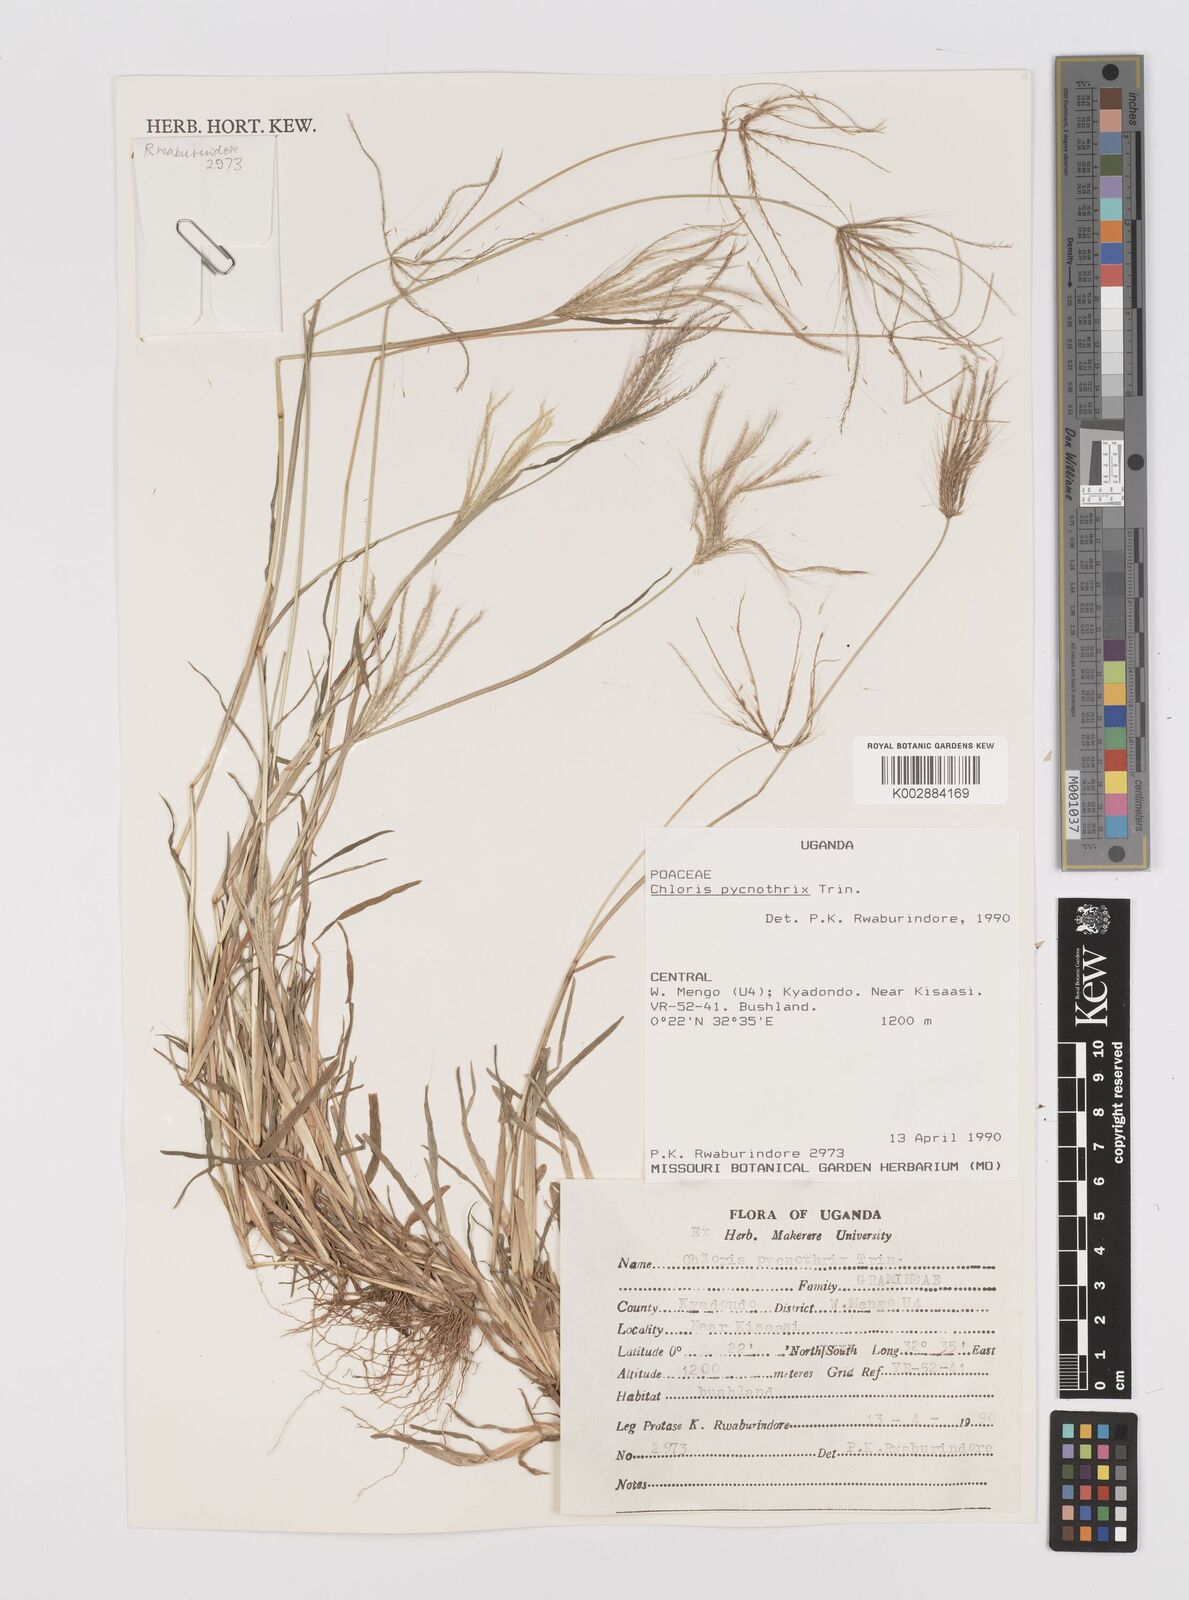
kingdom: Plantae
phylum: Tracheophyta
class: Liliopsida
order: Poales
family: Poaceae
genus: Chloris
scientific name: Chloris pycnothrix
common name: Spiderweb chloris
